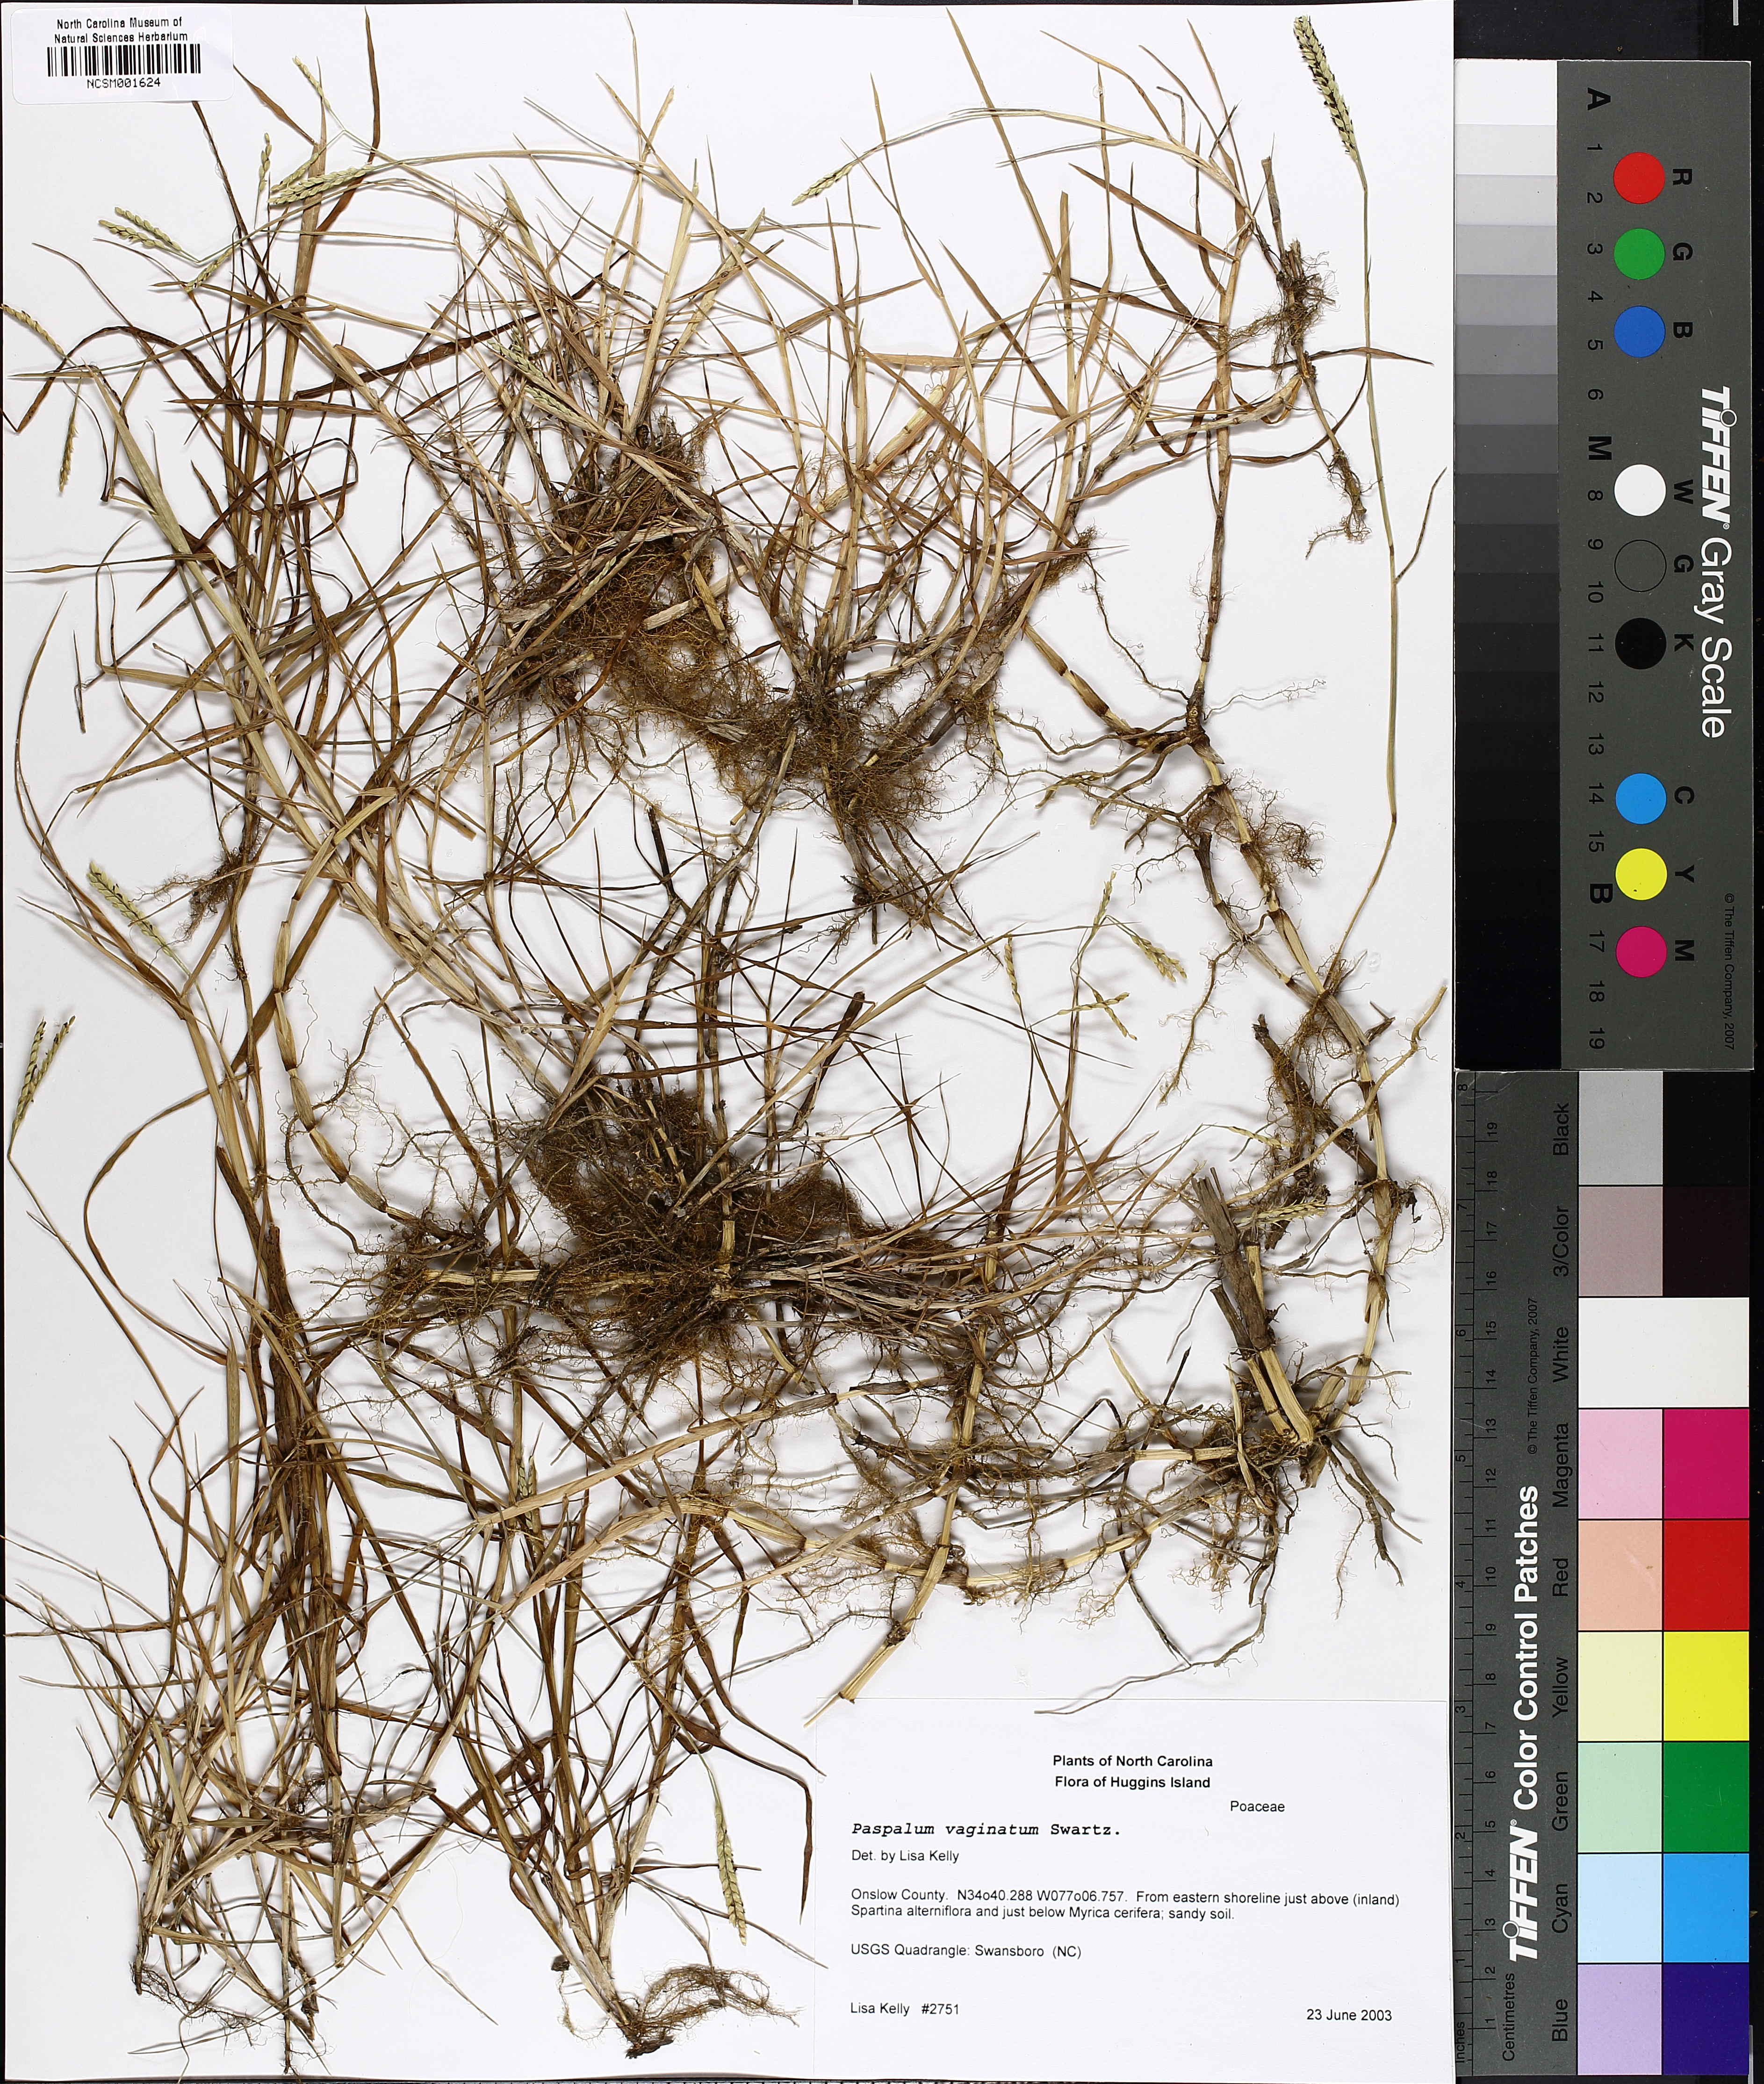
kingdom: Plantae
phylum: Tracheophyta
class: Liliopsida
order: Poales
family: Poaceae
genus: Paspalum
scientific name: Paspalum vaginatum
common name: Seashore paspalum
